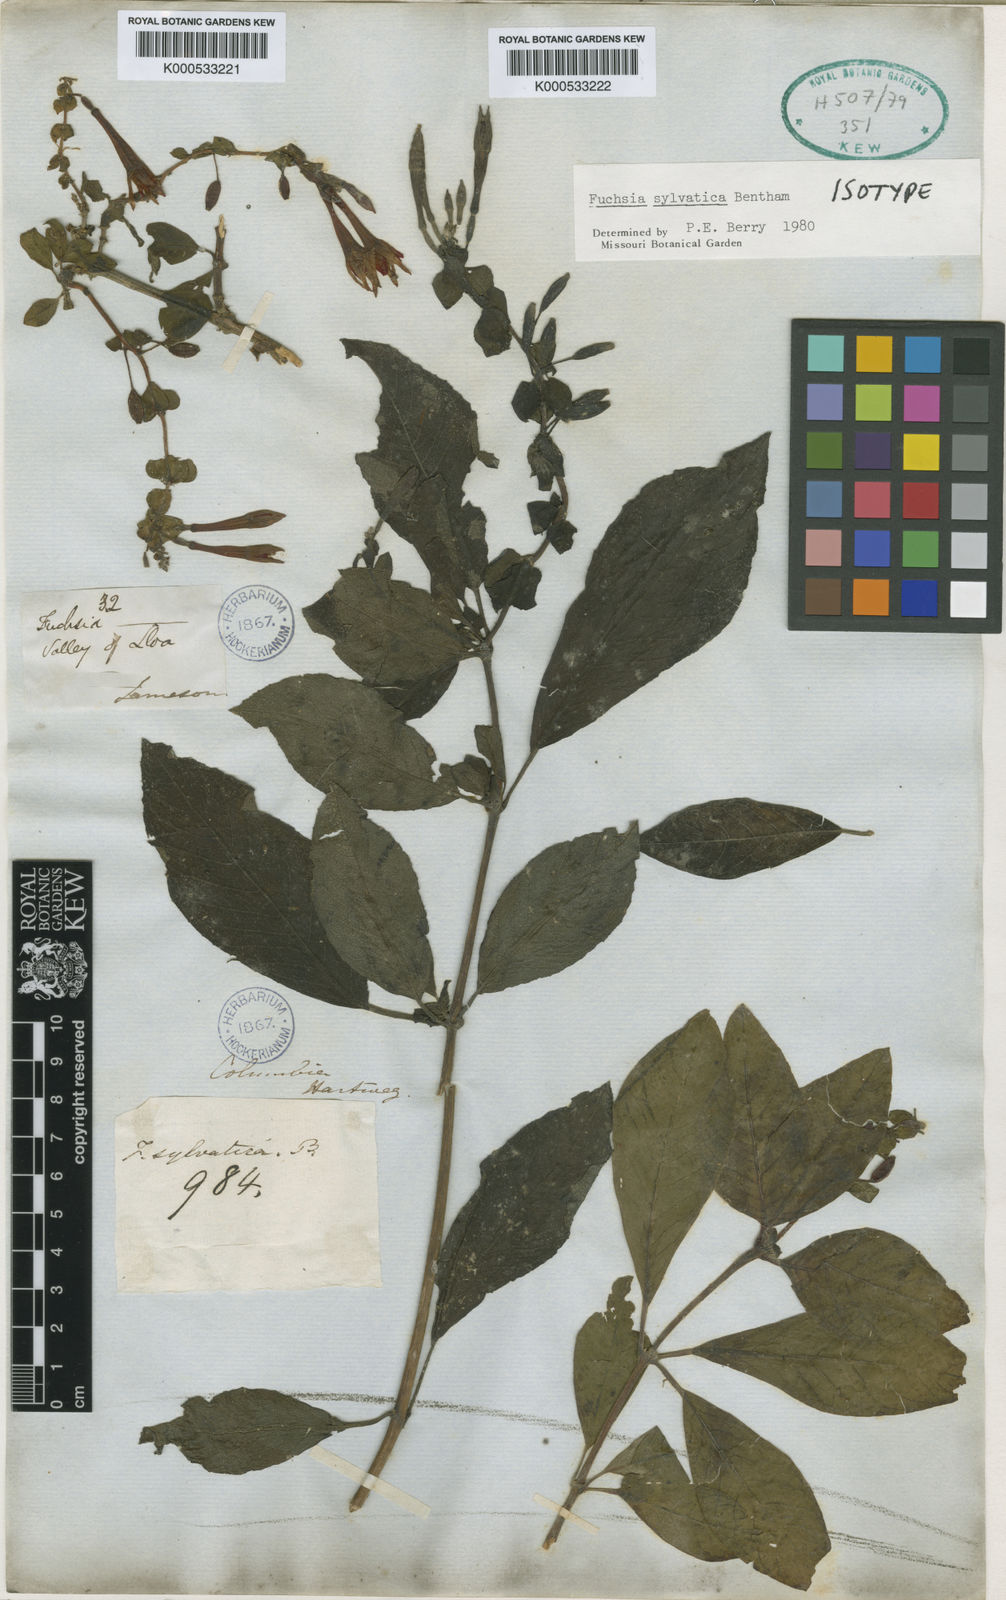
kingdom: Plantae
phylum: Tracheophyta
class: Magnoliopsida
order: Myrtales
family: Onagraceae
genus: Fuchsia
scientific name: Fuchsia sylvatica
